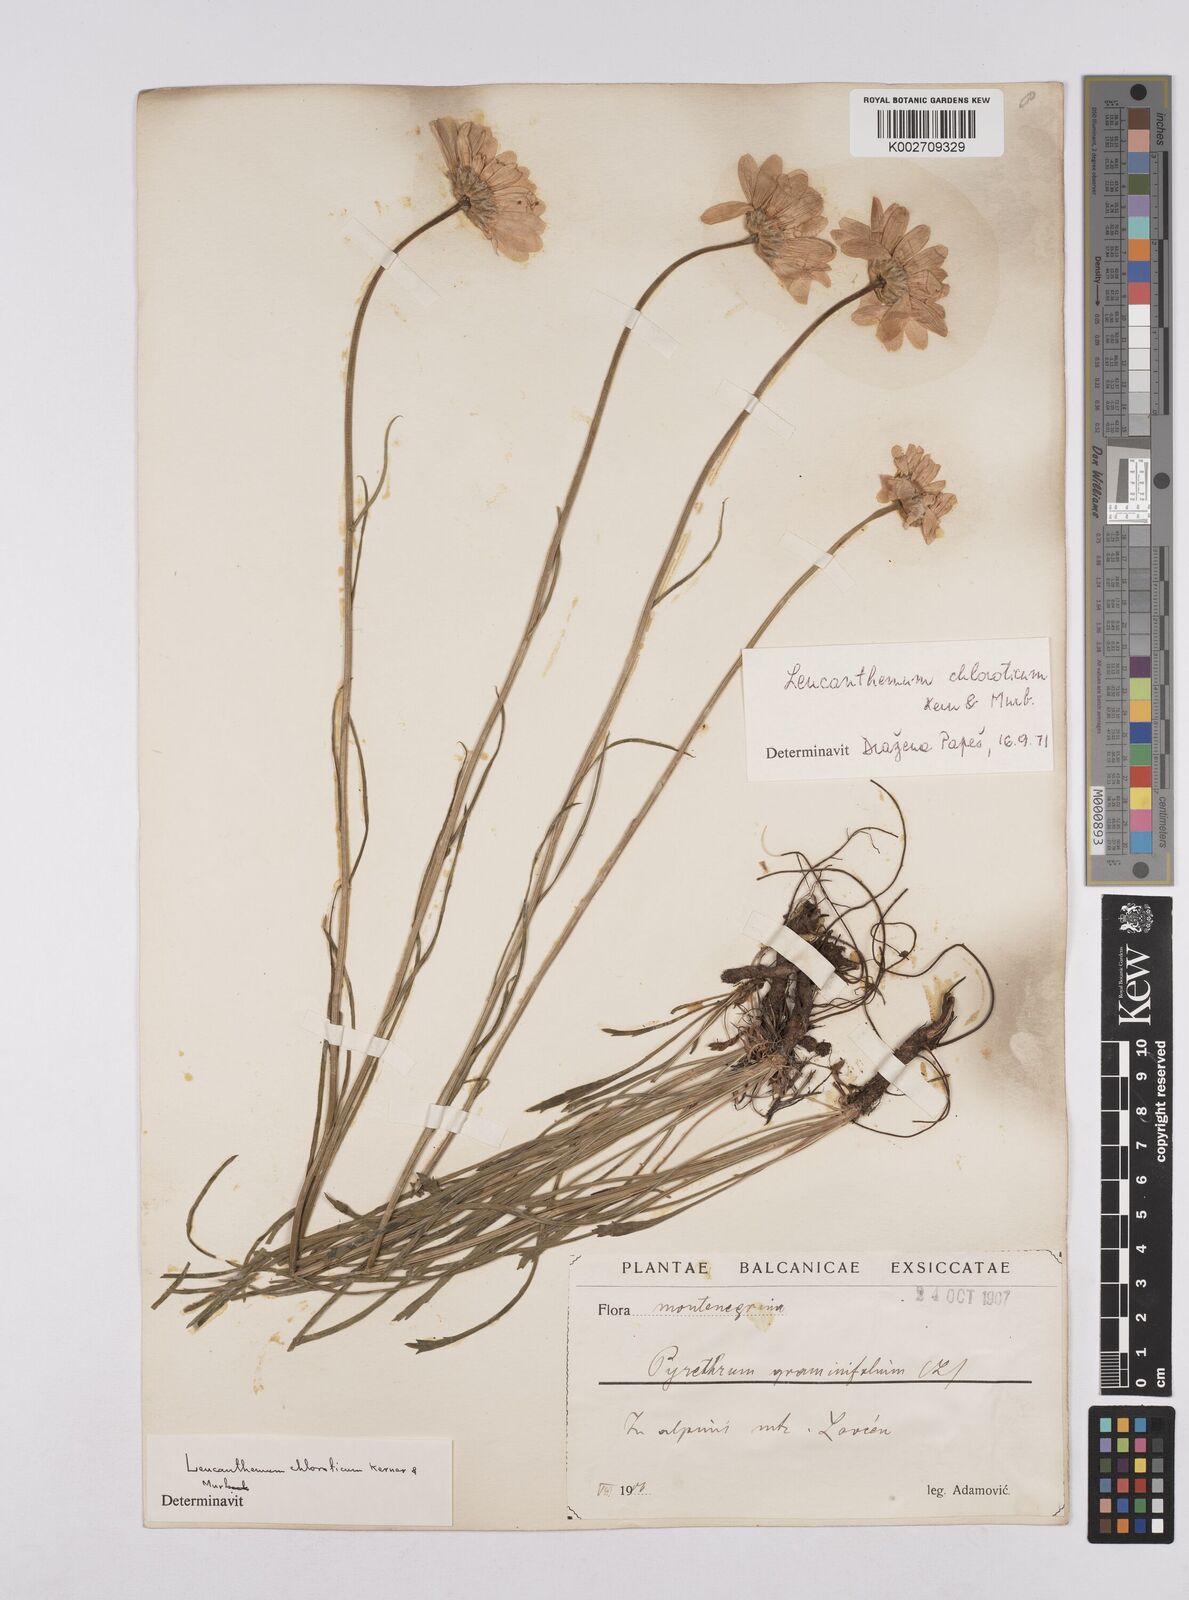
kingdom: Plantae
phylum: Tracheophyta
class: Magnoliopsida
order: Asterales
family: Asteraceae
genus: Leucanthemum
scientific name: Leucanthemum chloroticum
